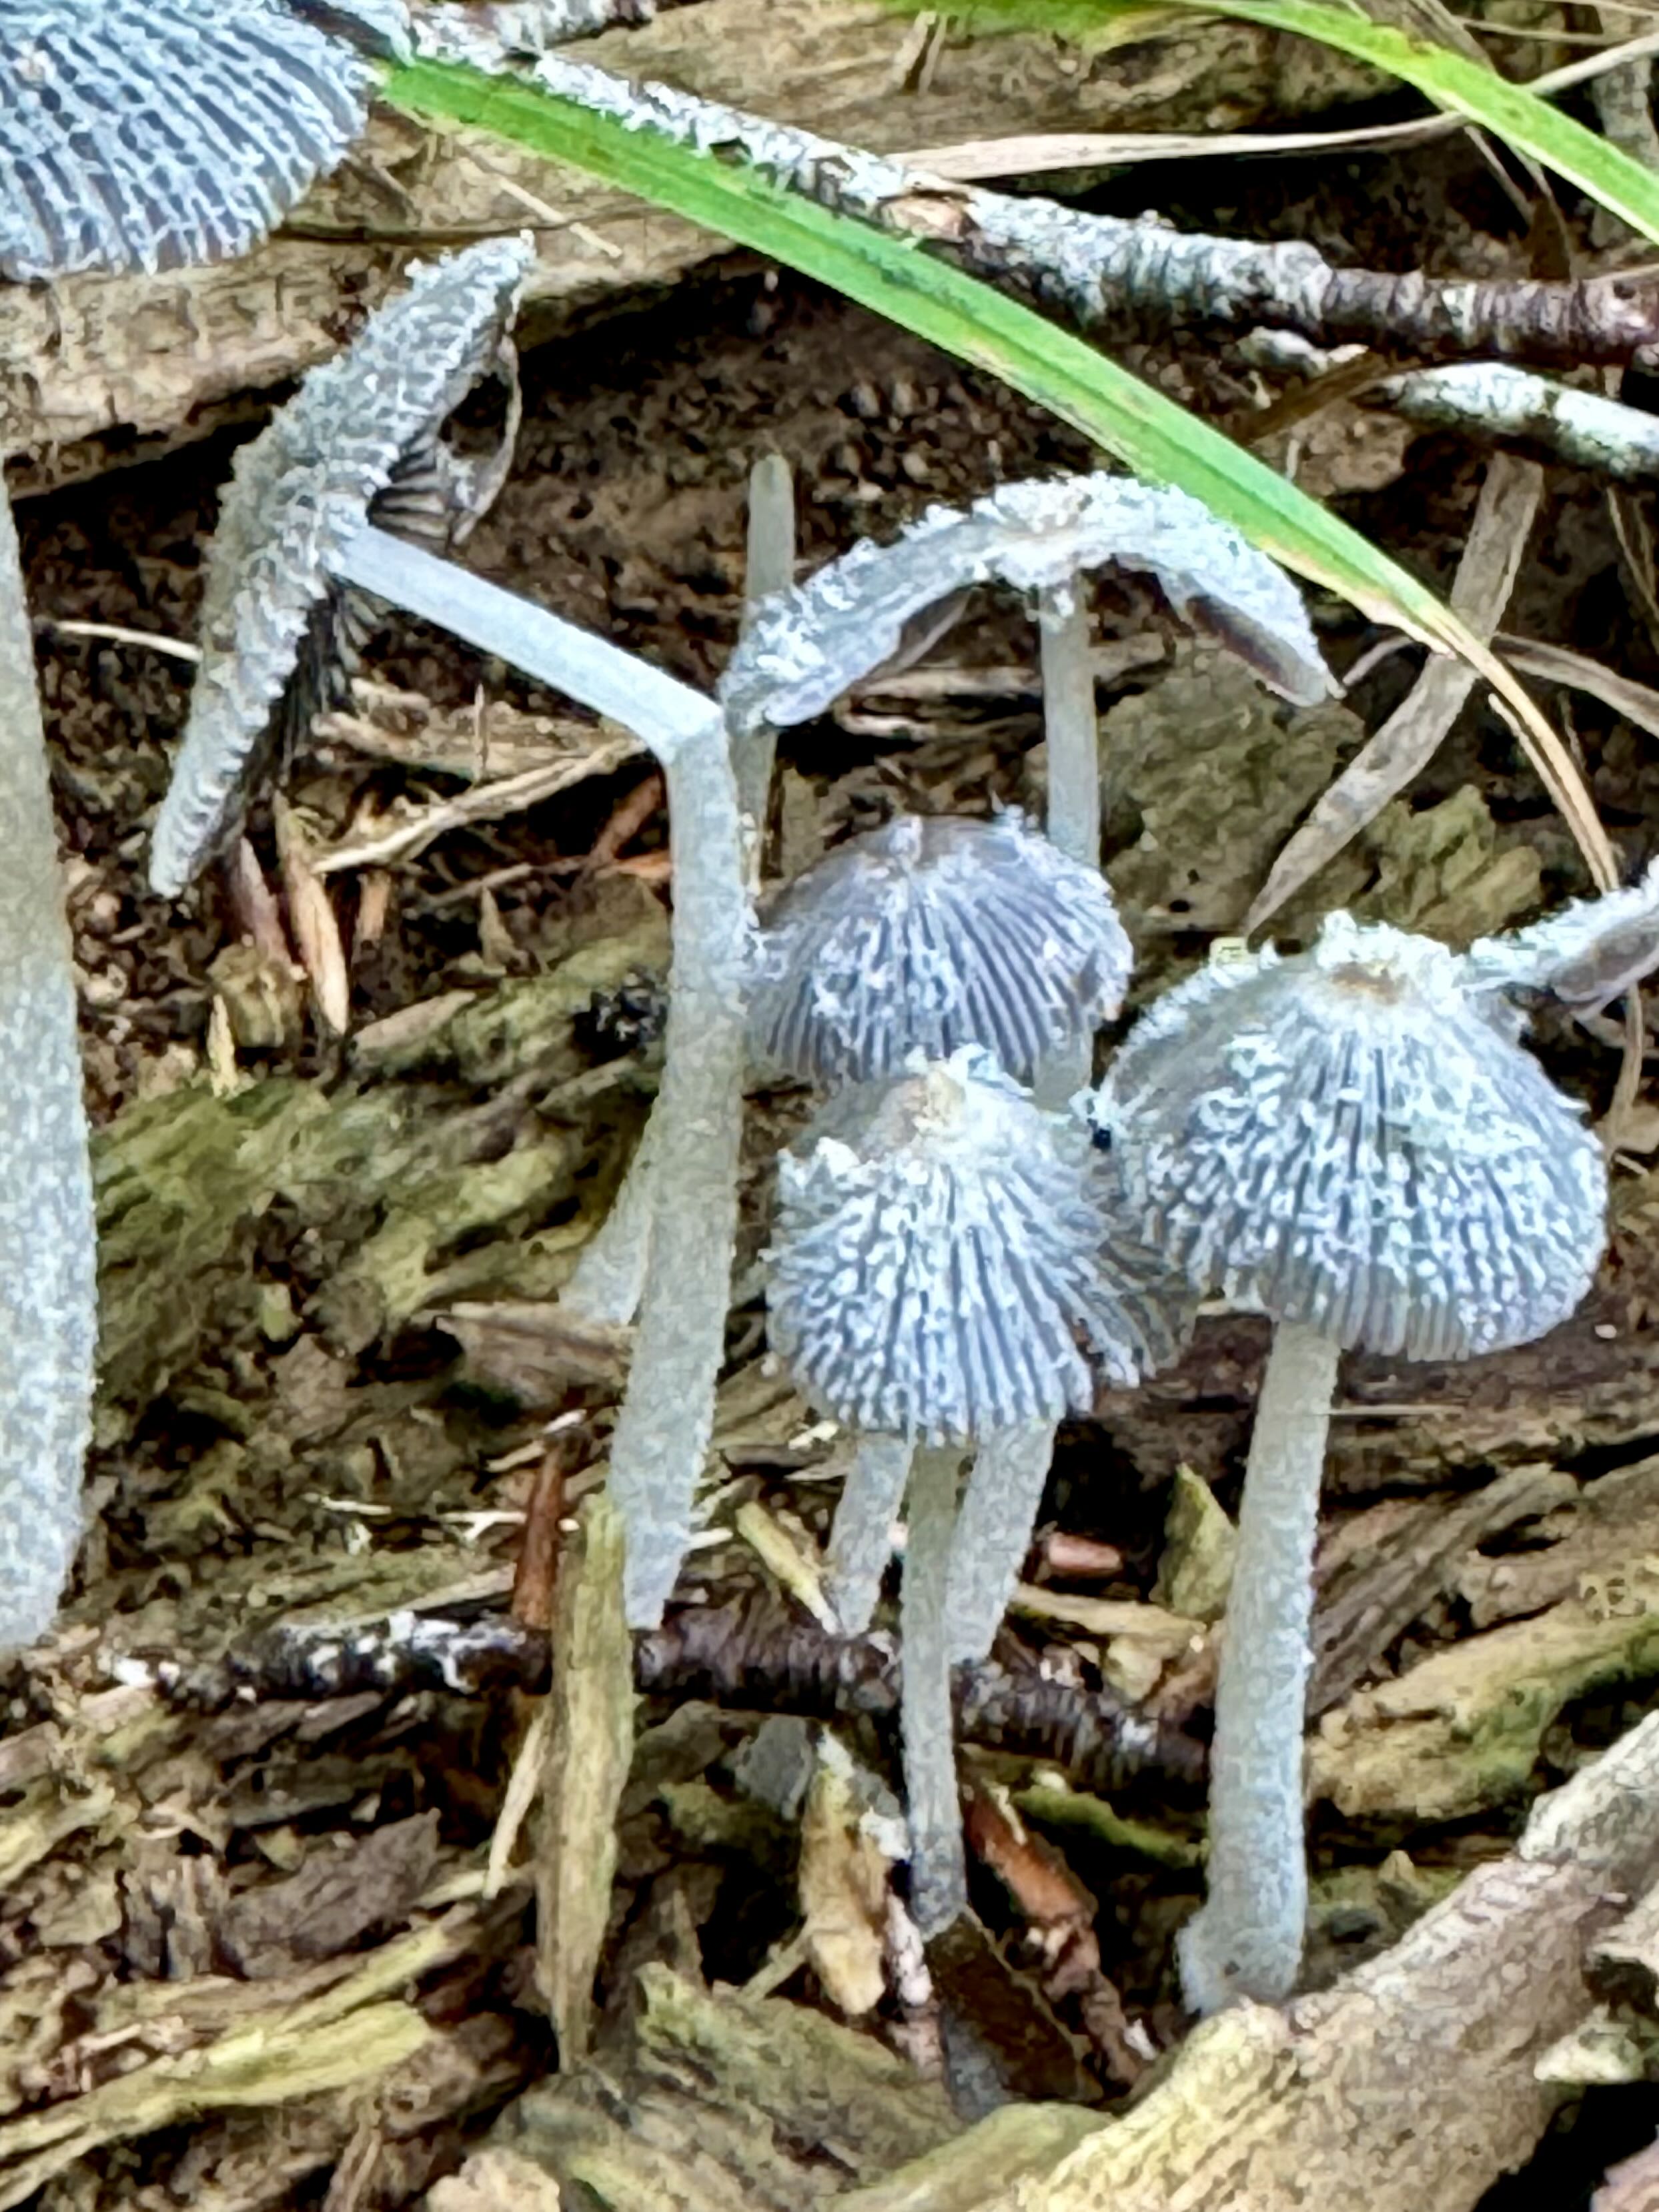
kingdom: Fungi
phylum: Basidiomycota
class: Agaricomycetes
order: Agaricales
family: Psathyrellaceae
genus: Coprinopsis
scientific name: Coprinopsis lagopus
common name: dunstokket blækhat
